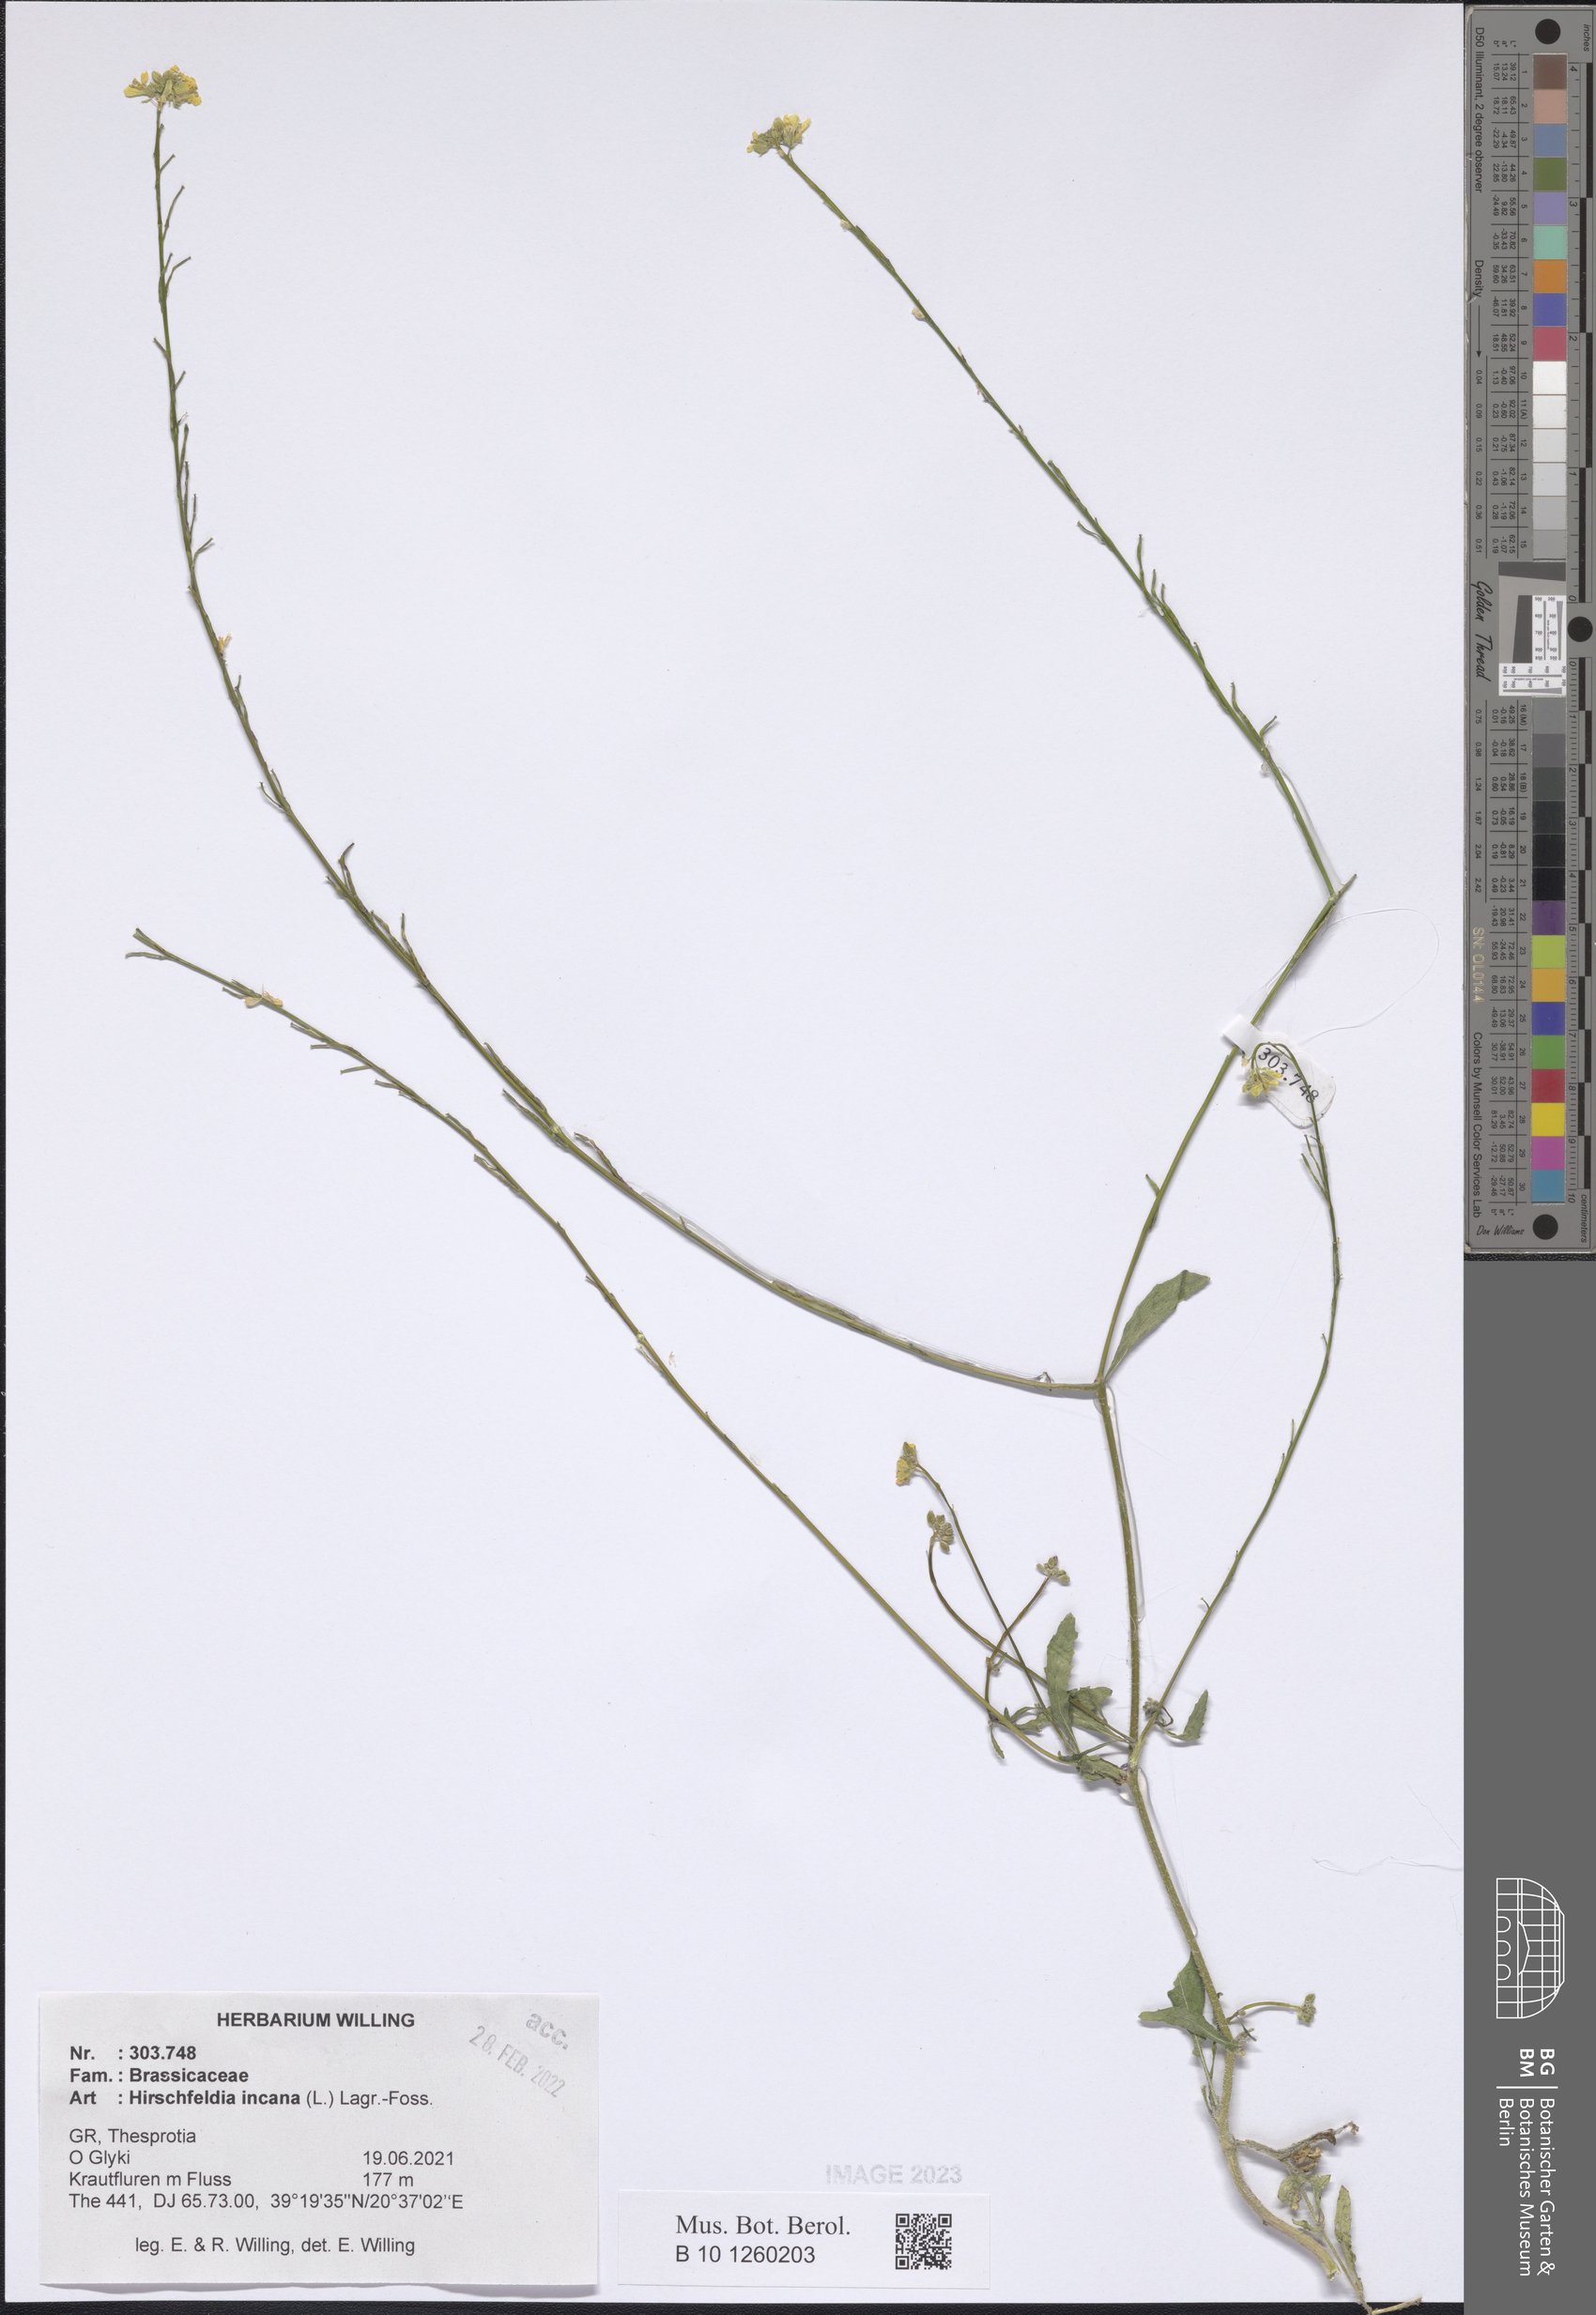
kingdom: Plantae
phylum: Tracheophyta
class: Magnoliopsida
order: Brassicales
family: Brassicaceae
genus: Hirschfeldia
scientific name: Hirschfeldia incana
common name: Hoary mustard
